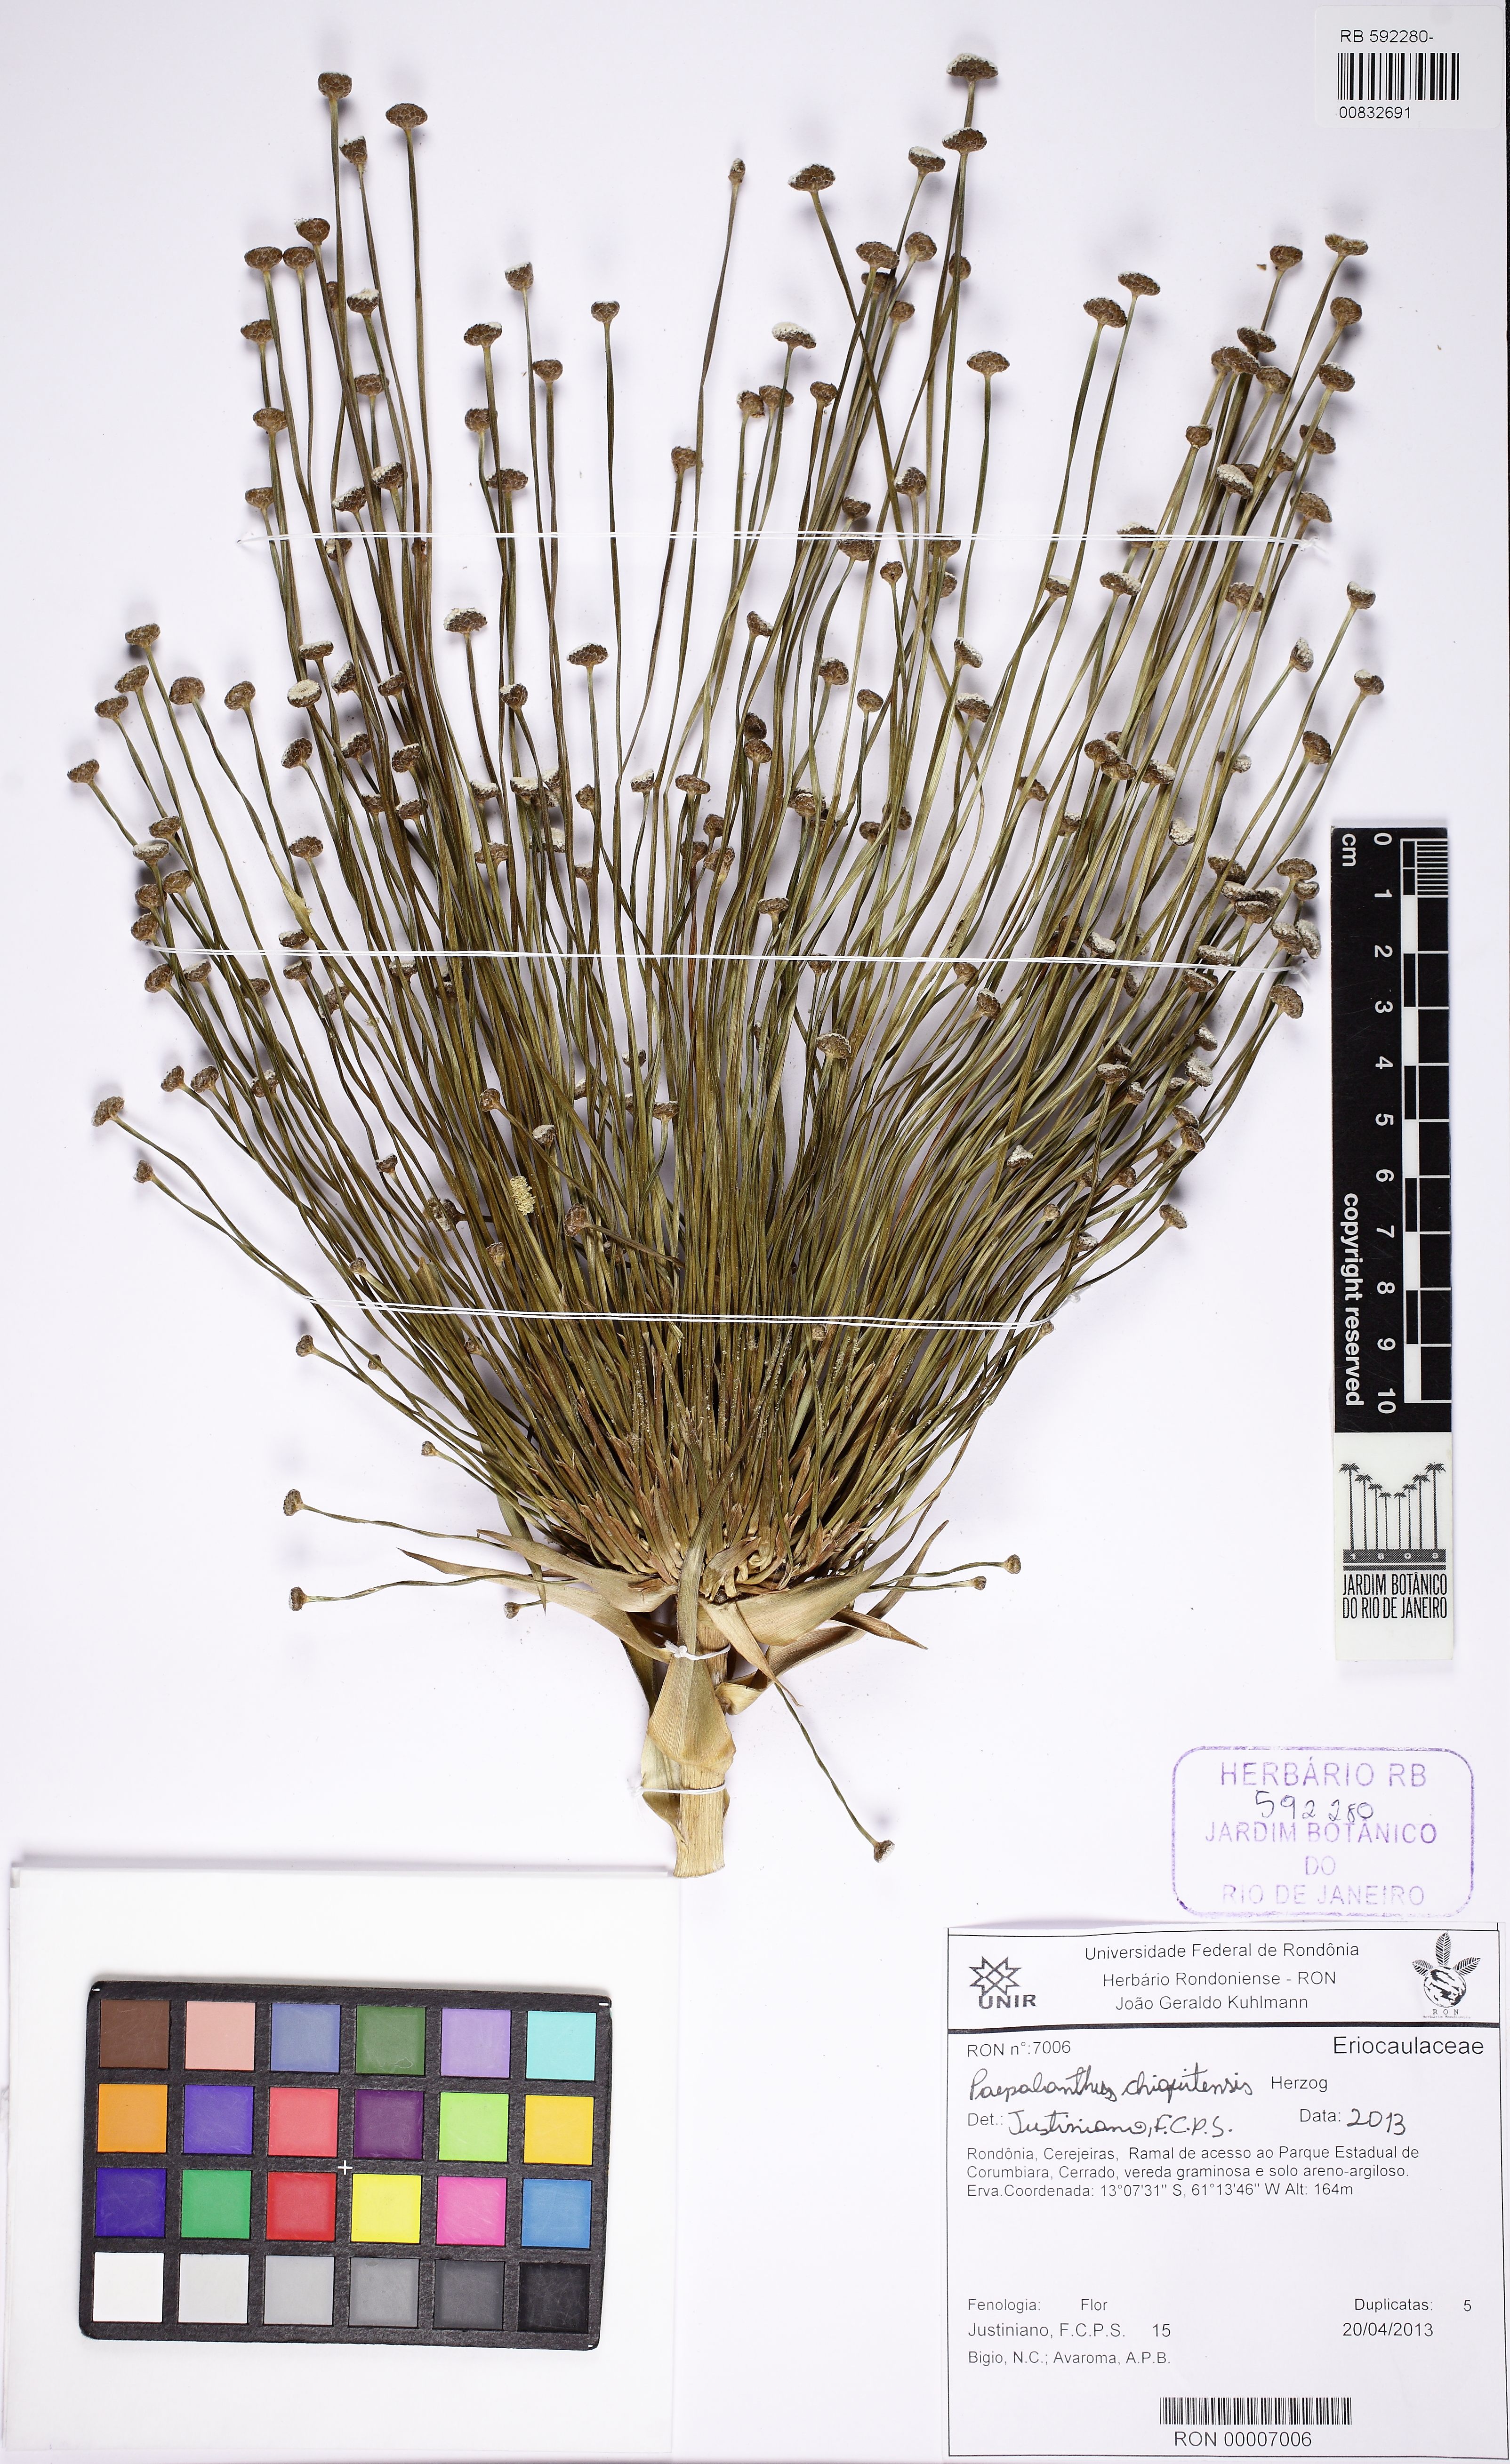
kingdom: Plantae
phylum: Tracheophyta
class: Liliopsida
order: Poales
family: Eriocaulaceae
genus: Paepalanthus
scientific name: Paepalanthus chiquitensis
